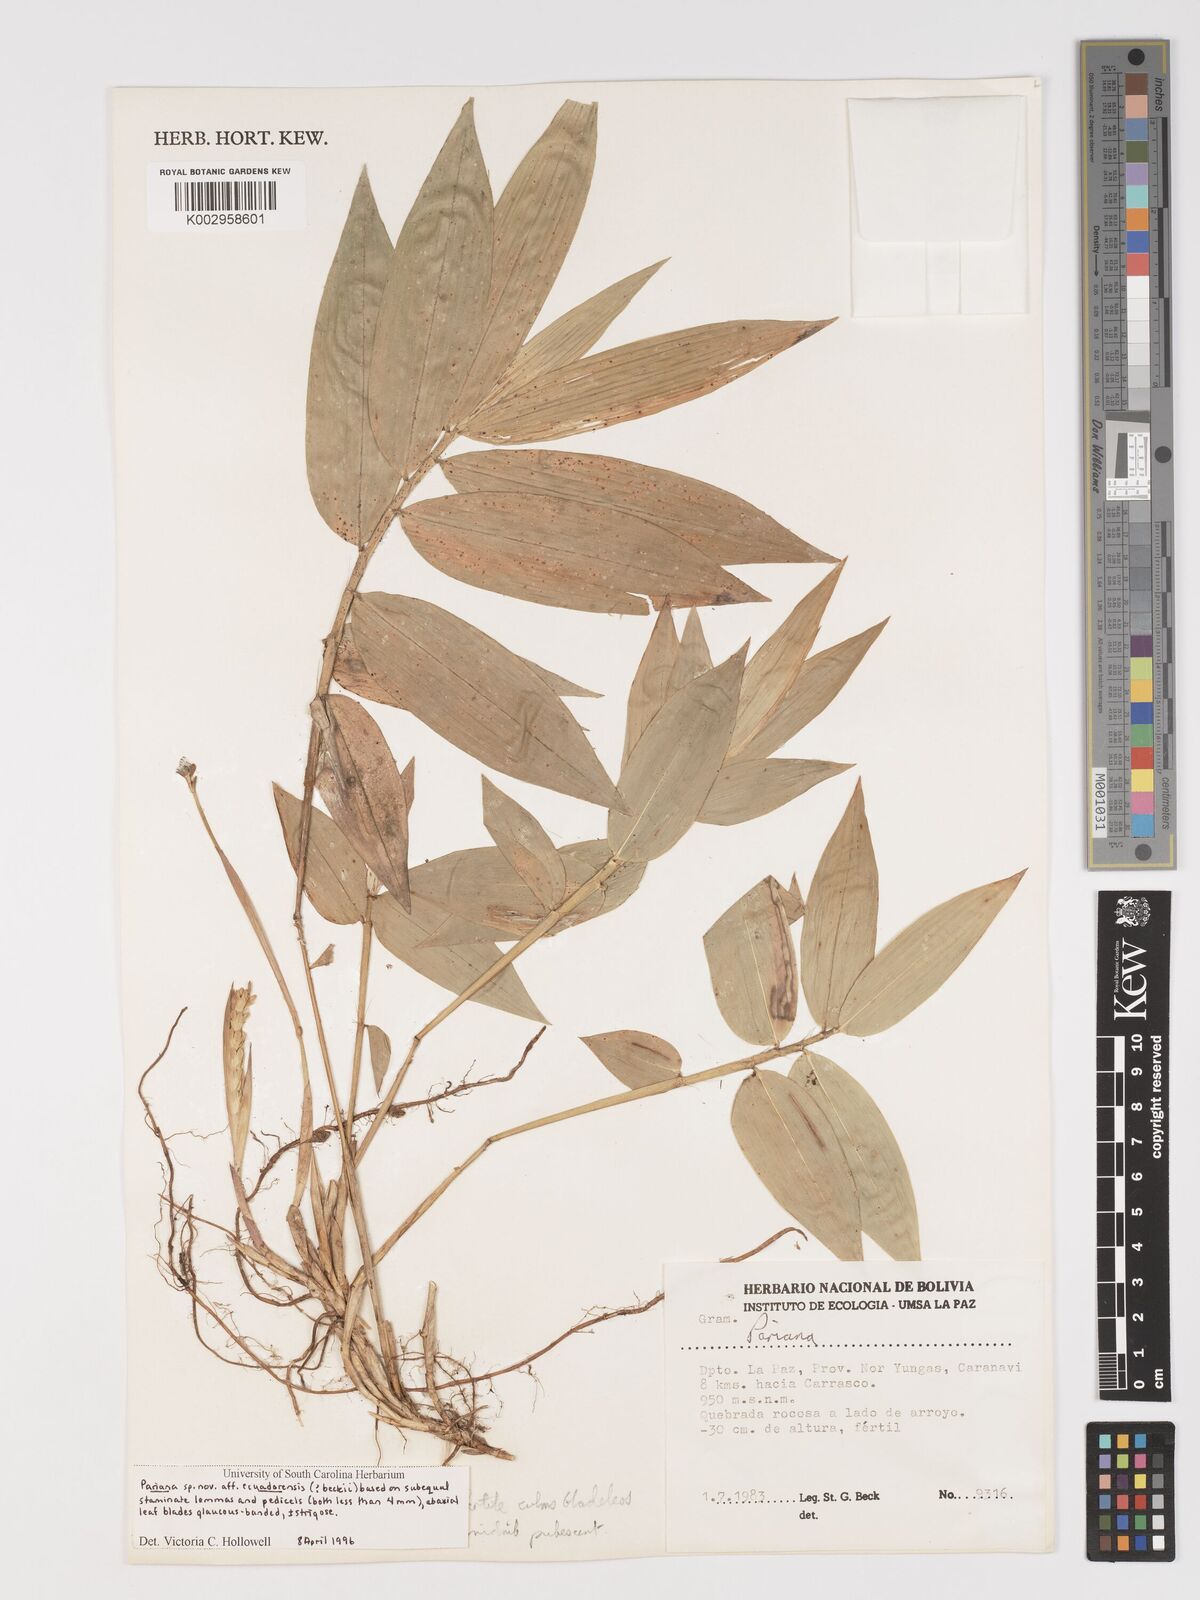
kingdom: Plantae
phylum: Tracheophyta
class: Liliopsida
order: Poales
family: Poaceae
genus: Pariana
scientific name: Pariana
